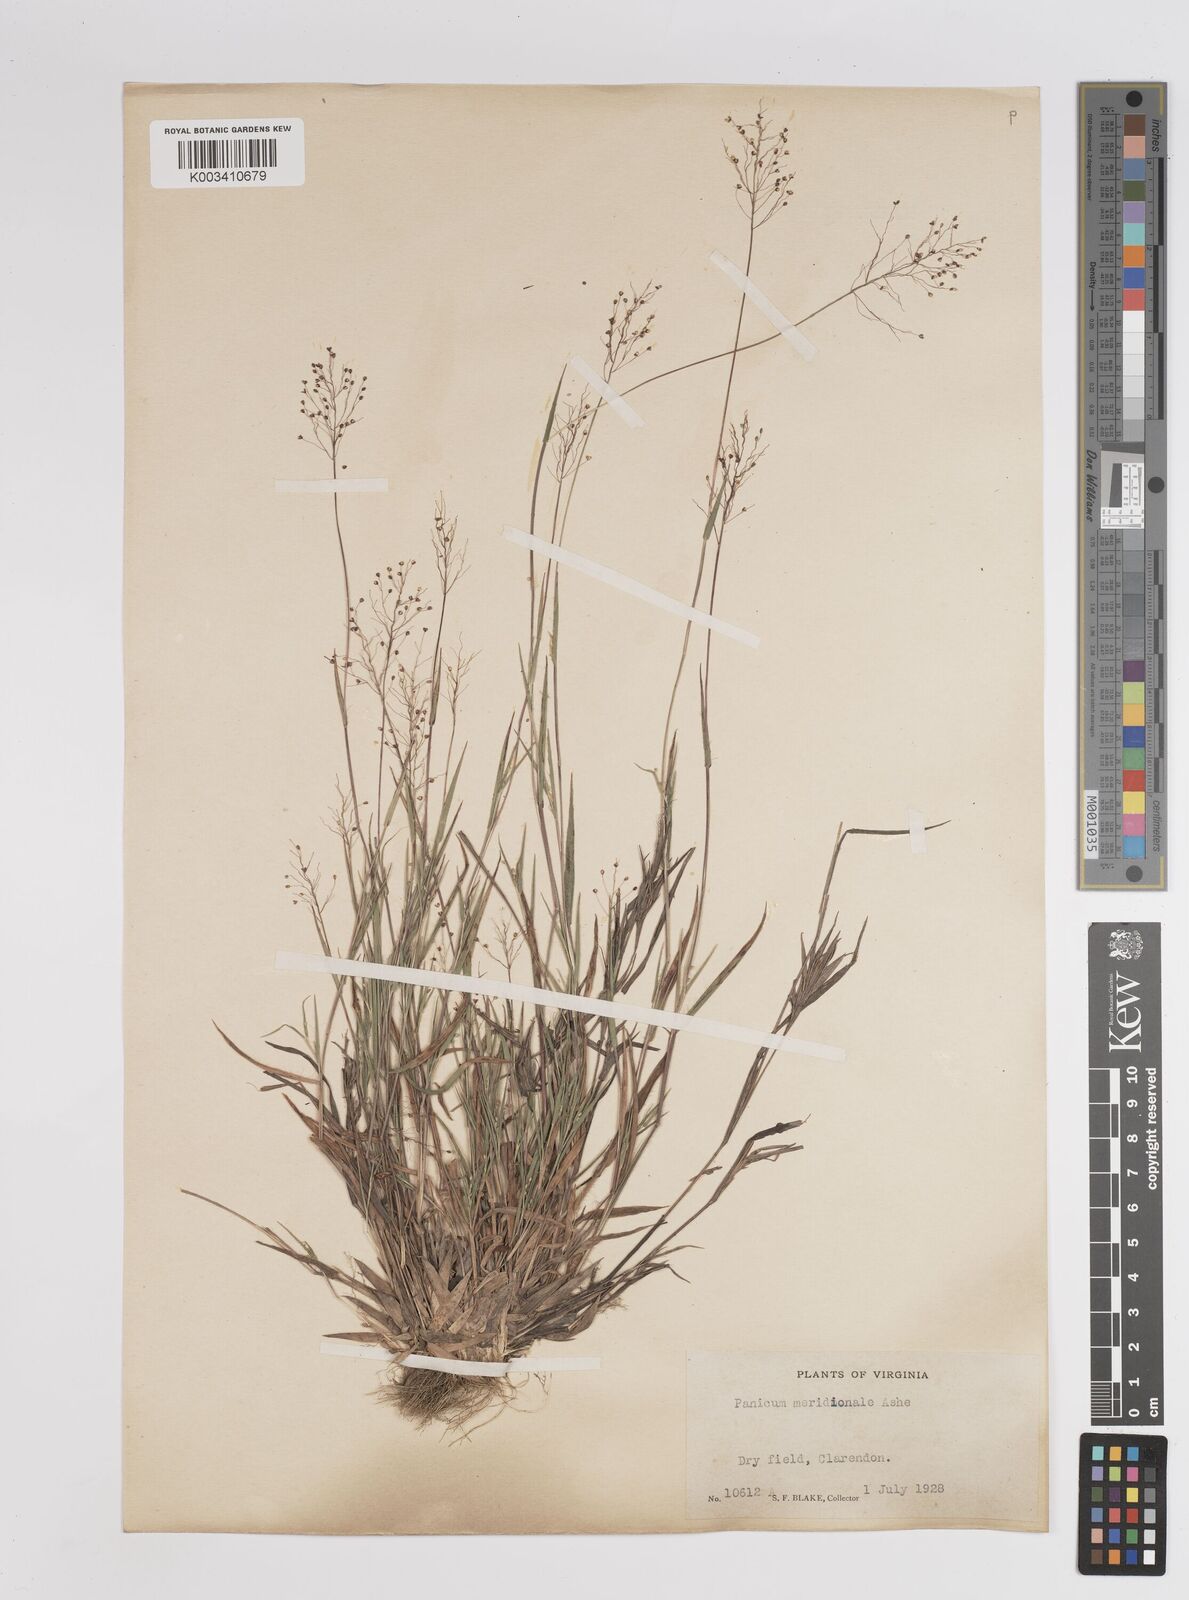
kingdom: Plantae
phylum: Tracheophyta
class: Liliopsida
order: Poales
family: Poaceae
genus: Dichanthelium
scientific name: Dichanthelium meridionale
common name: Mat panicgrass
